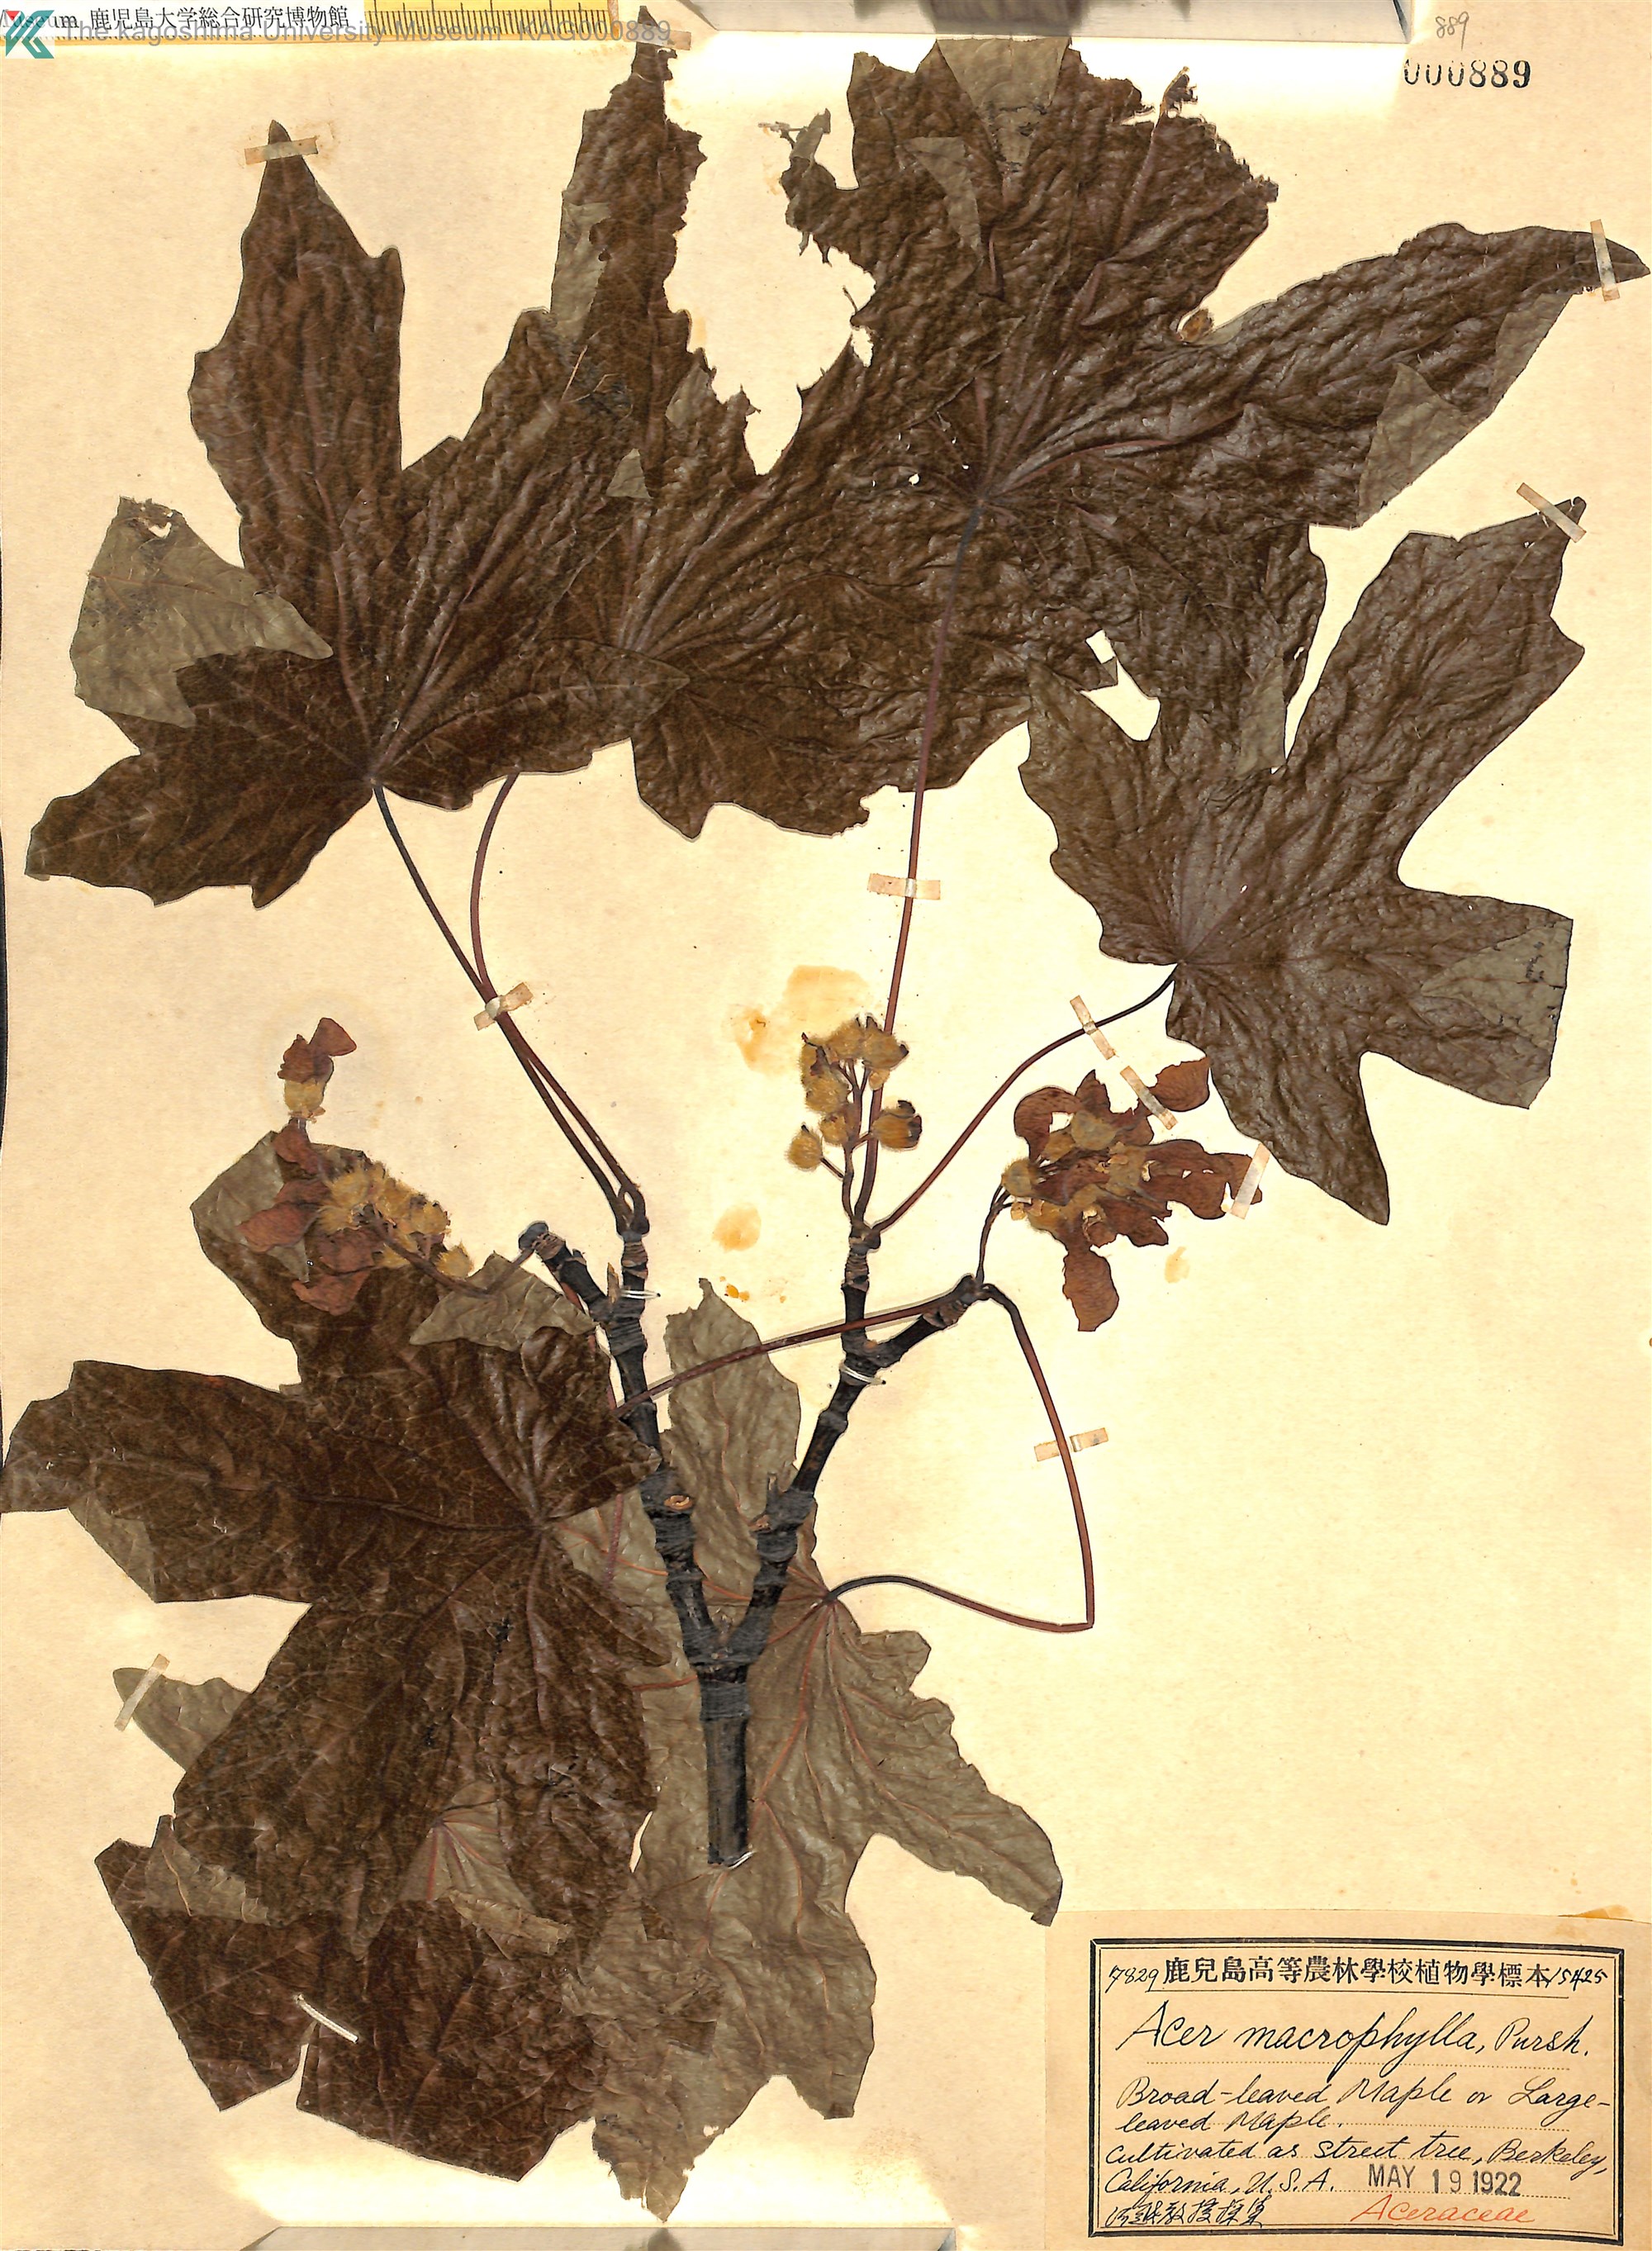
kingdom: Plantae
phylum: Tracheophyta
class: Magnoliopsida
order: Sapindales
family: Sapindaceae
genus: Acer
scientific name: Acer macrophyllum
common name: Oregon maple
